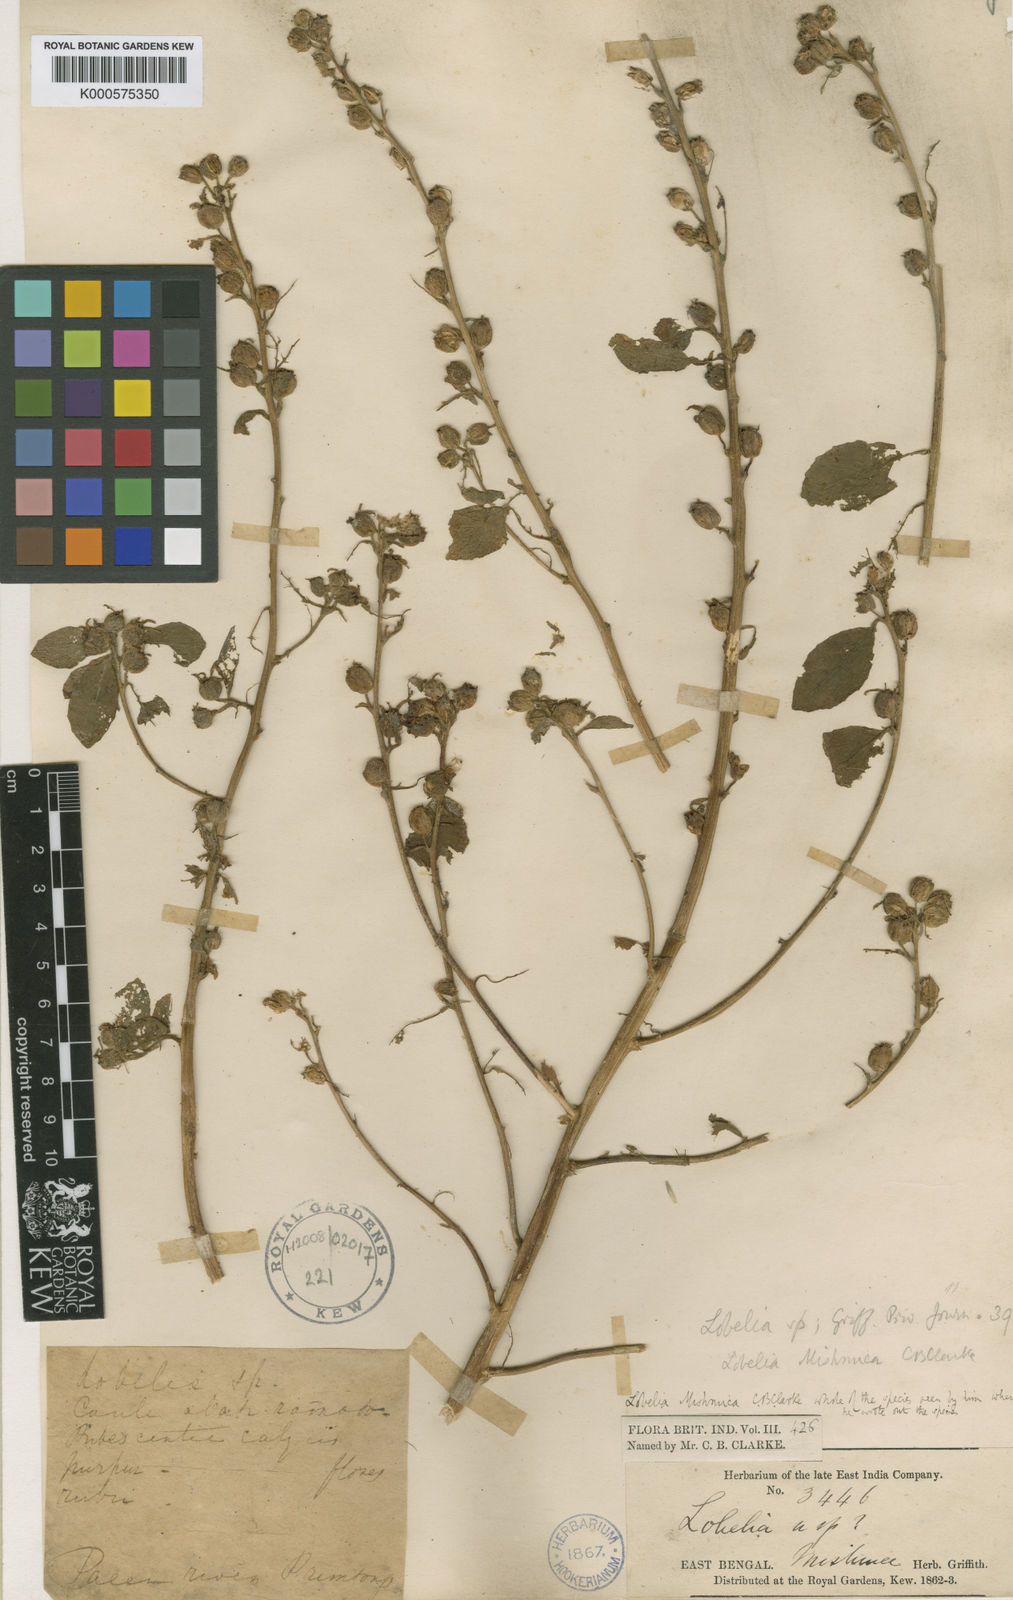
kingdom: Plantae
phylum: Tracheophyta
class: Magnoliopsida
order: Asterales
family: Campanulaceae
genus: Lobelia
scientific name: Lobelia nicotianifolia
